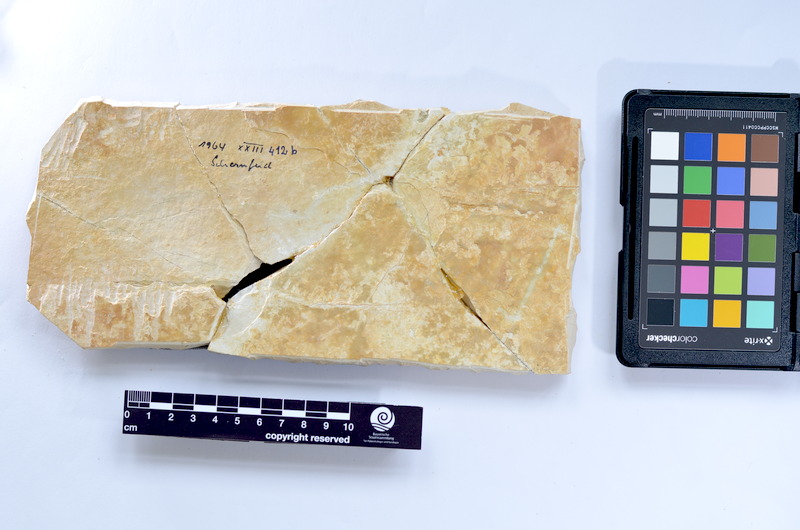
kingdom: Animalia
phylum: Chordata
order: Elopiformes
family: Anaethalionidae
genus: Anaethalion
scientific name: Anaethalion knorri
